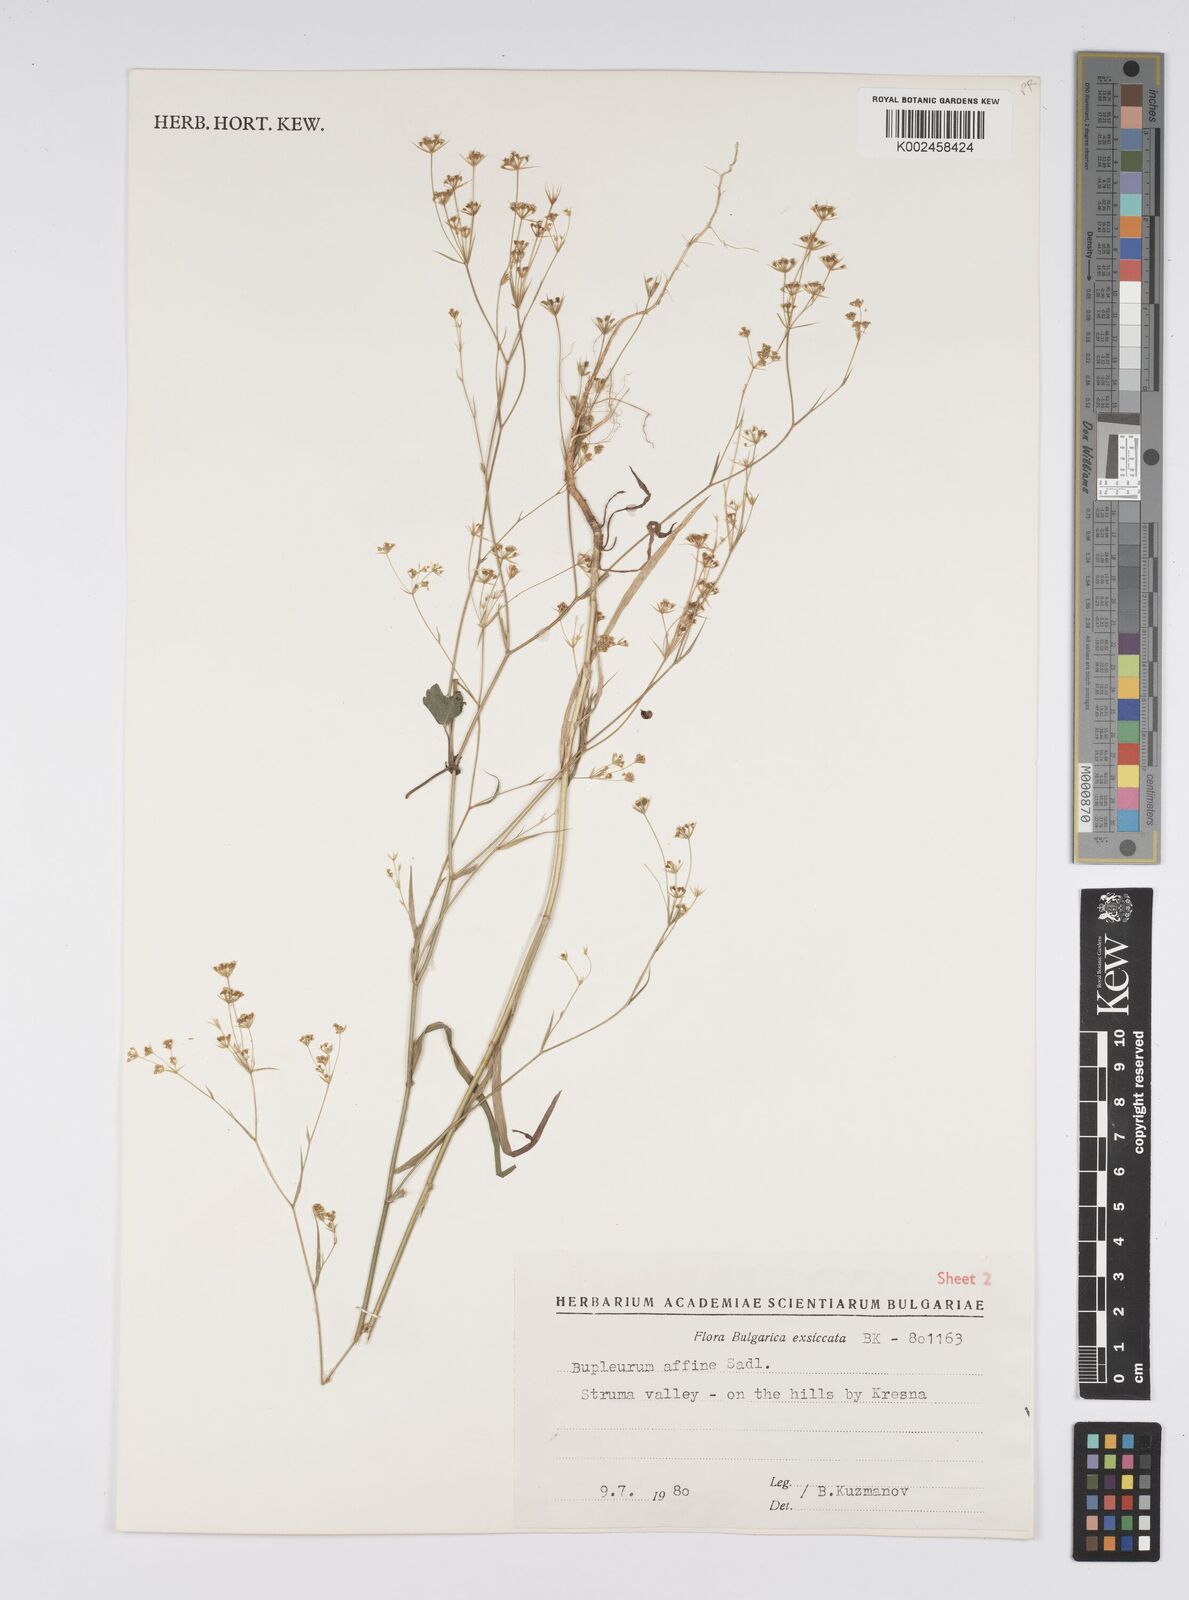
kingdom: Plantae
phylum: Tracheophyta
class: Magnoliopsida
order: Apiales
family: Apiaceae
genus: Bupleurum
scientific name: Bupleurum affine
